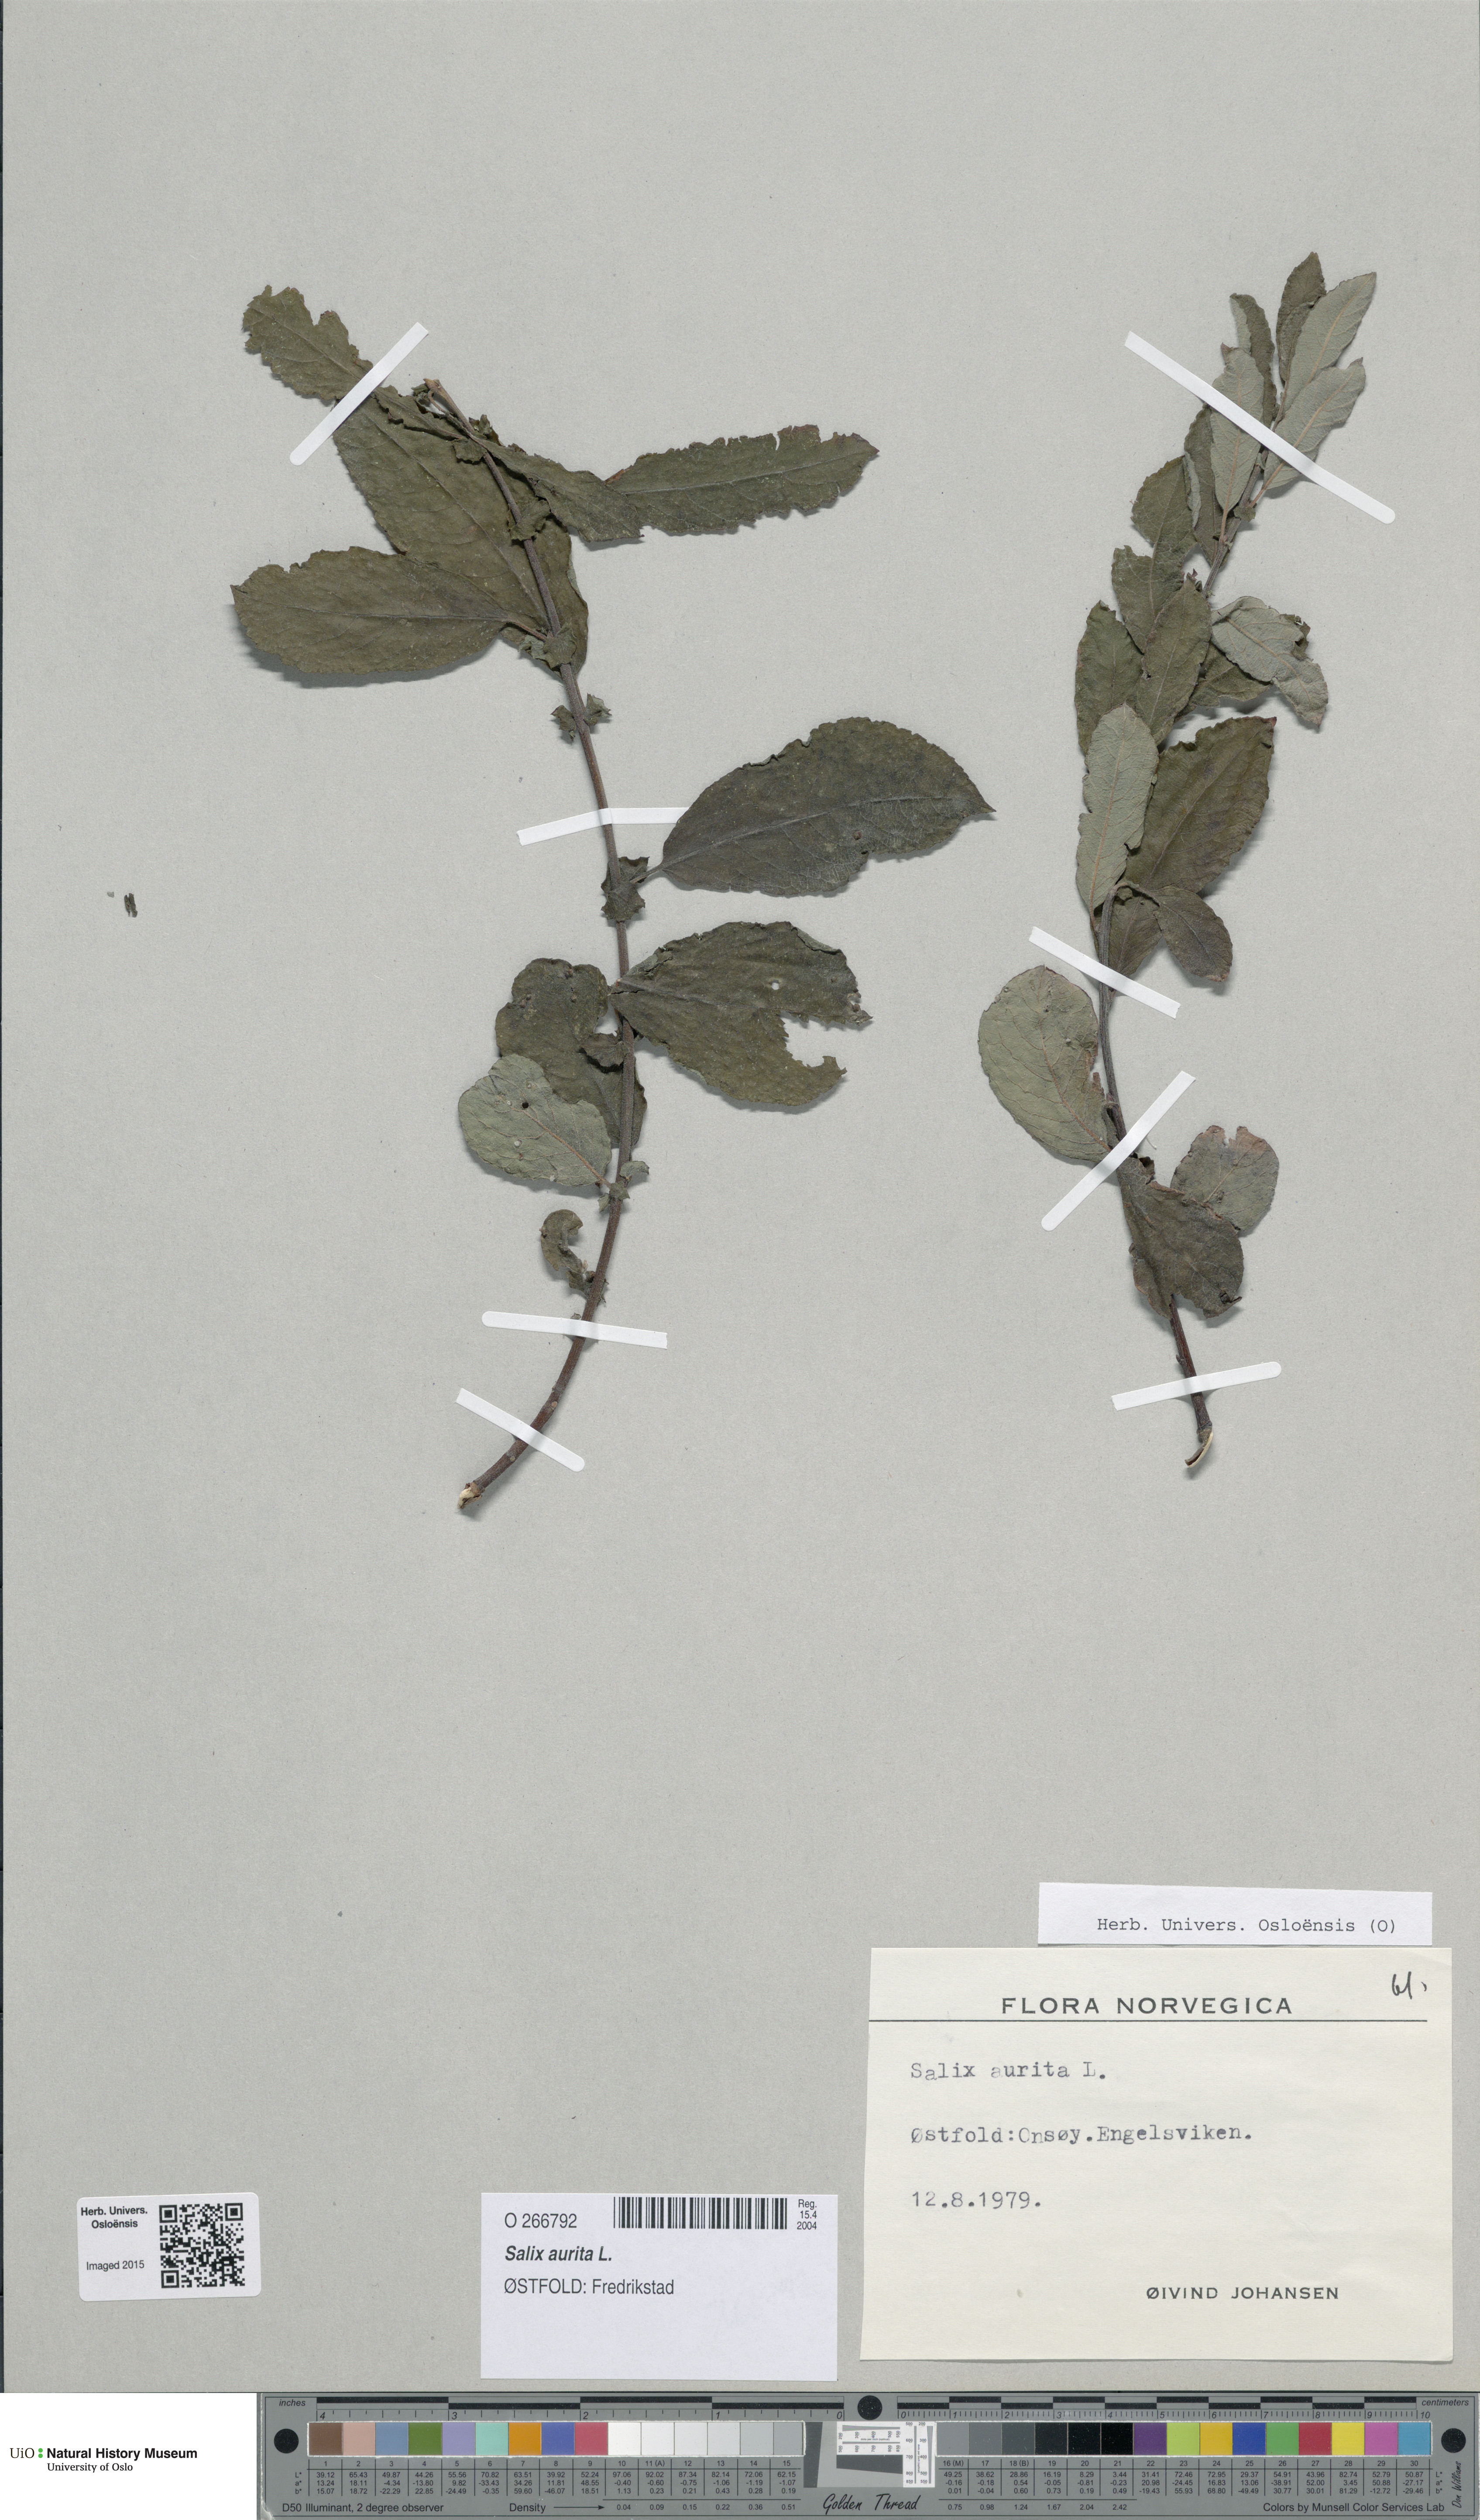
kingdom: Plantae
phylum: Tracheophyta
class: Magnoliopsida
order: Malpighiales
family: Salicaceae
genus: Salix
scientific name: Salix aurita
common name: Eared willow
